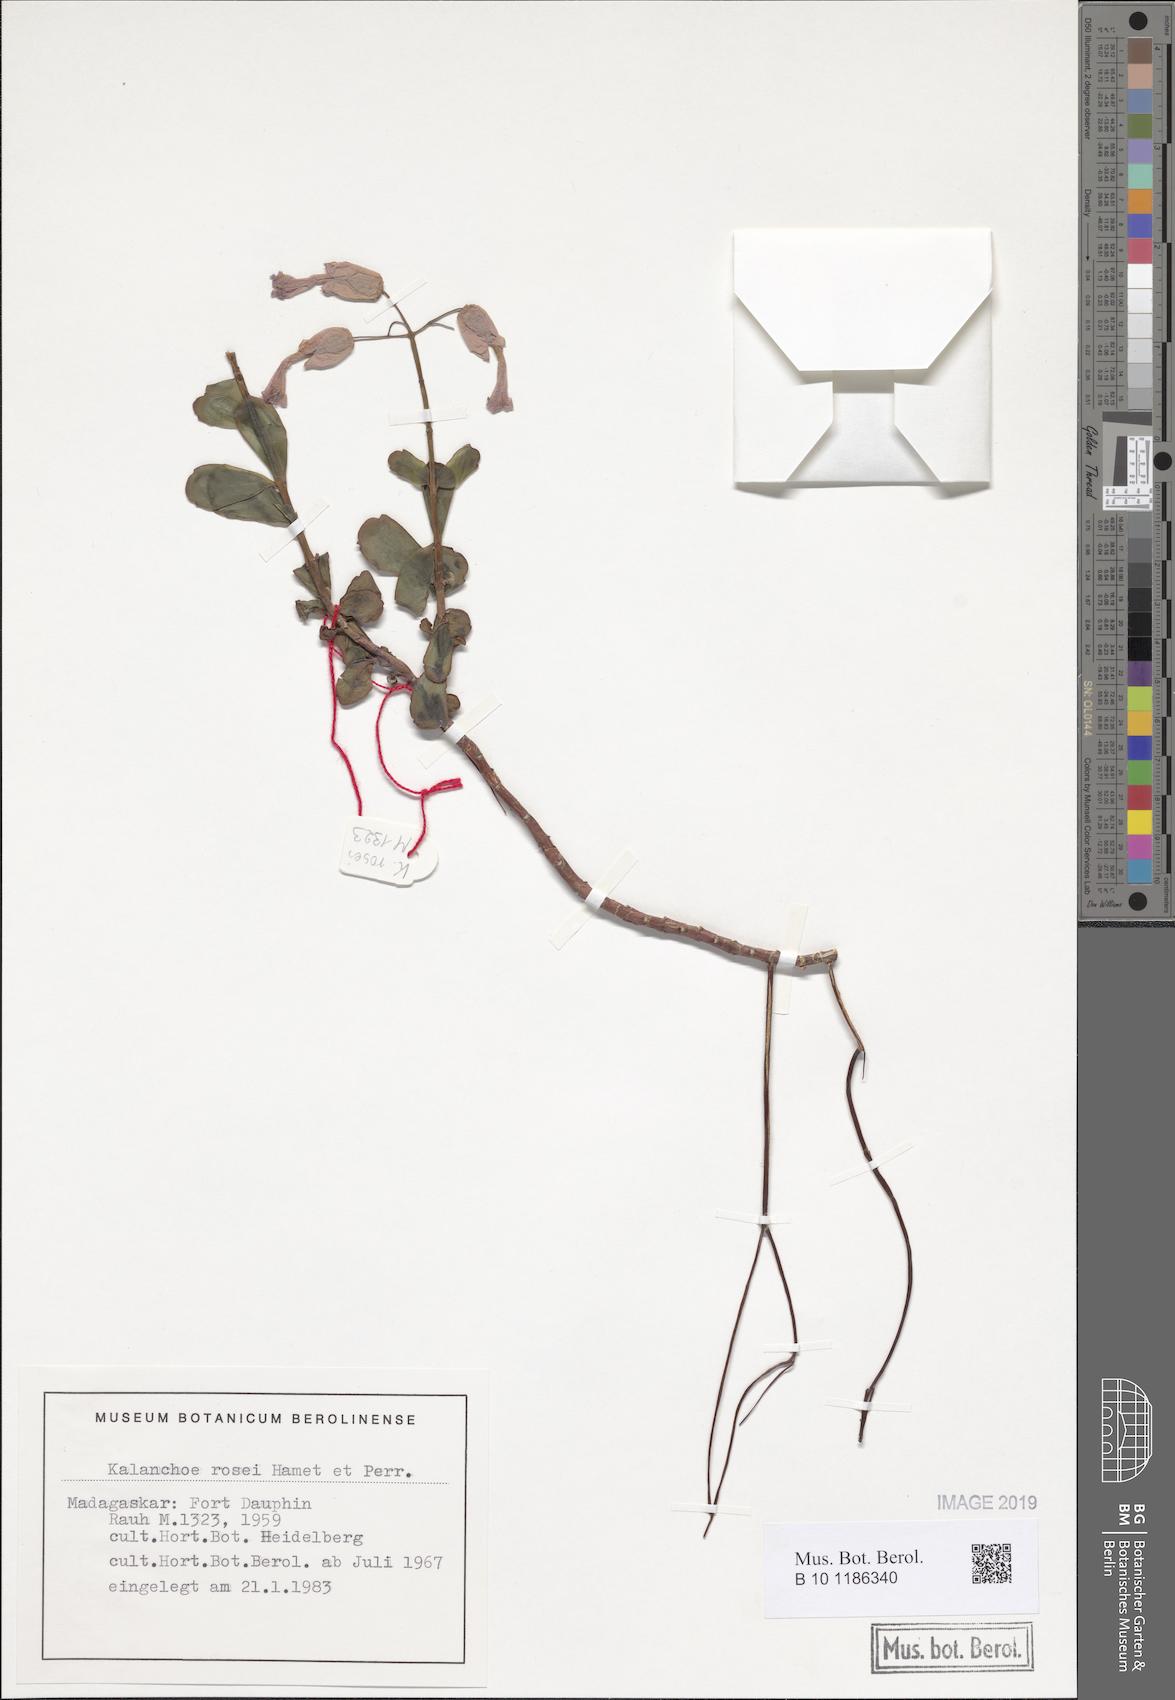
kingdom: Plantae
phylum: Tracheophyta
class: Magnoliopsida
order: Saxifragales
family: Crassulaceae
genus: Kalanchoe
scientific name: Kalanchoe rosei
